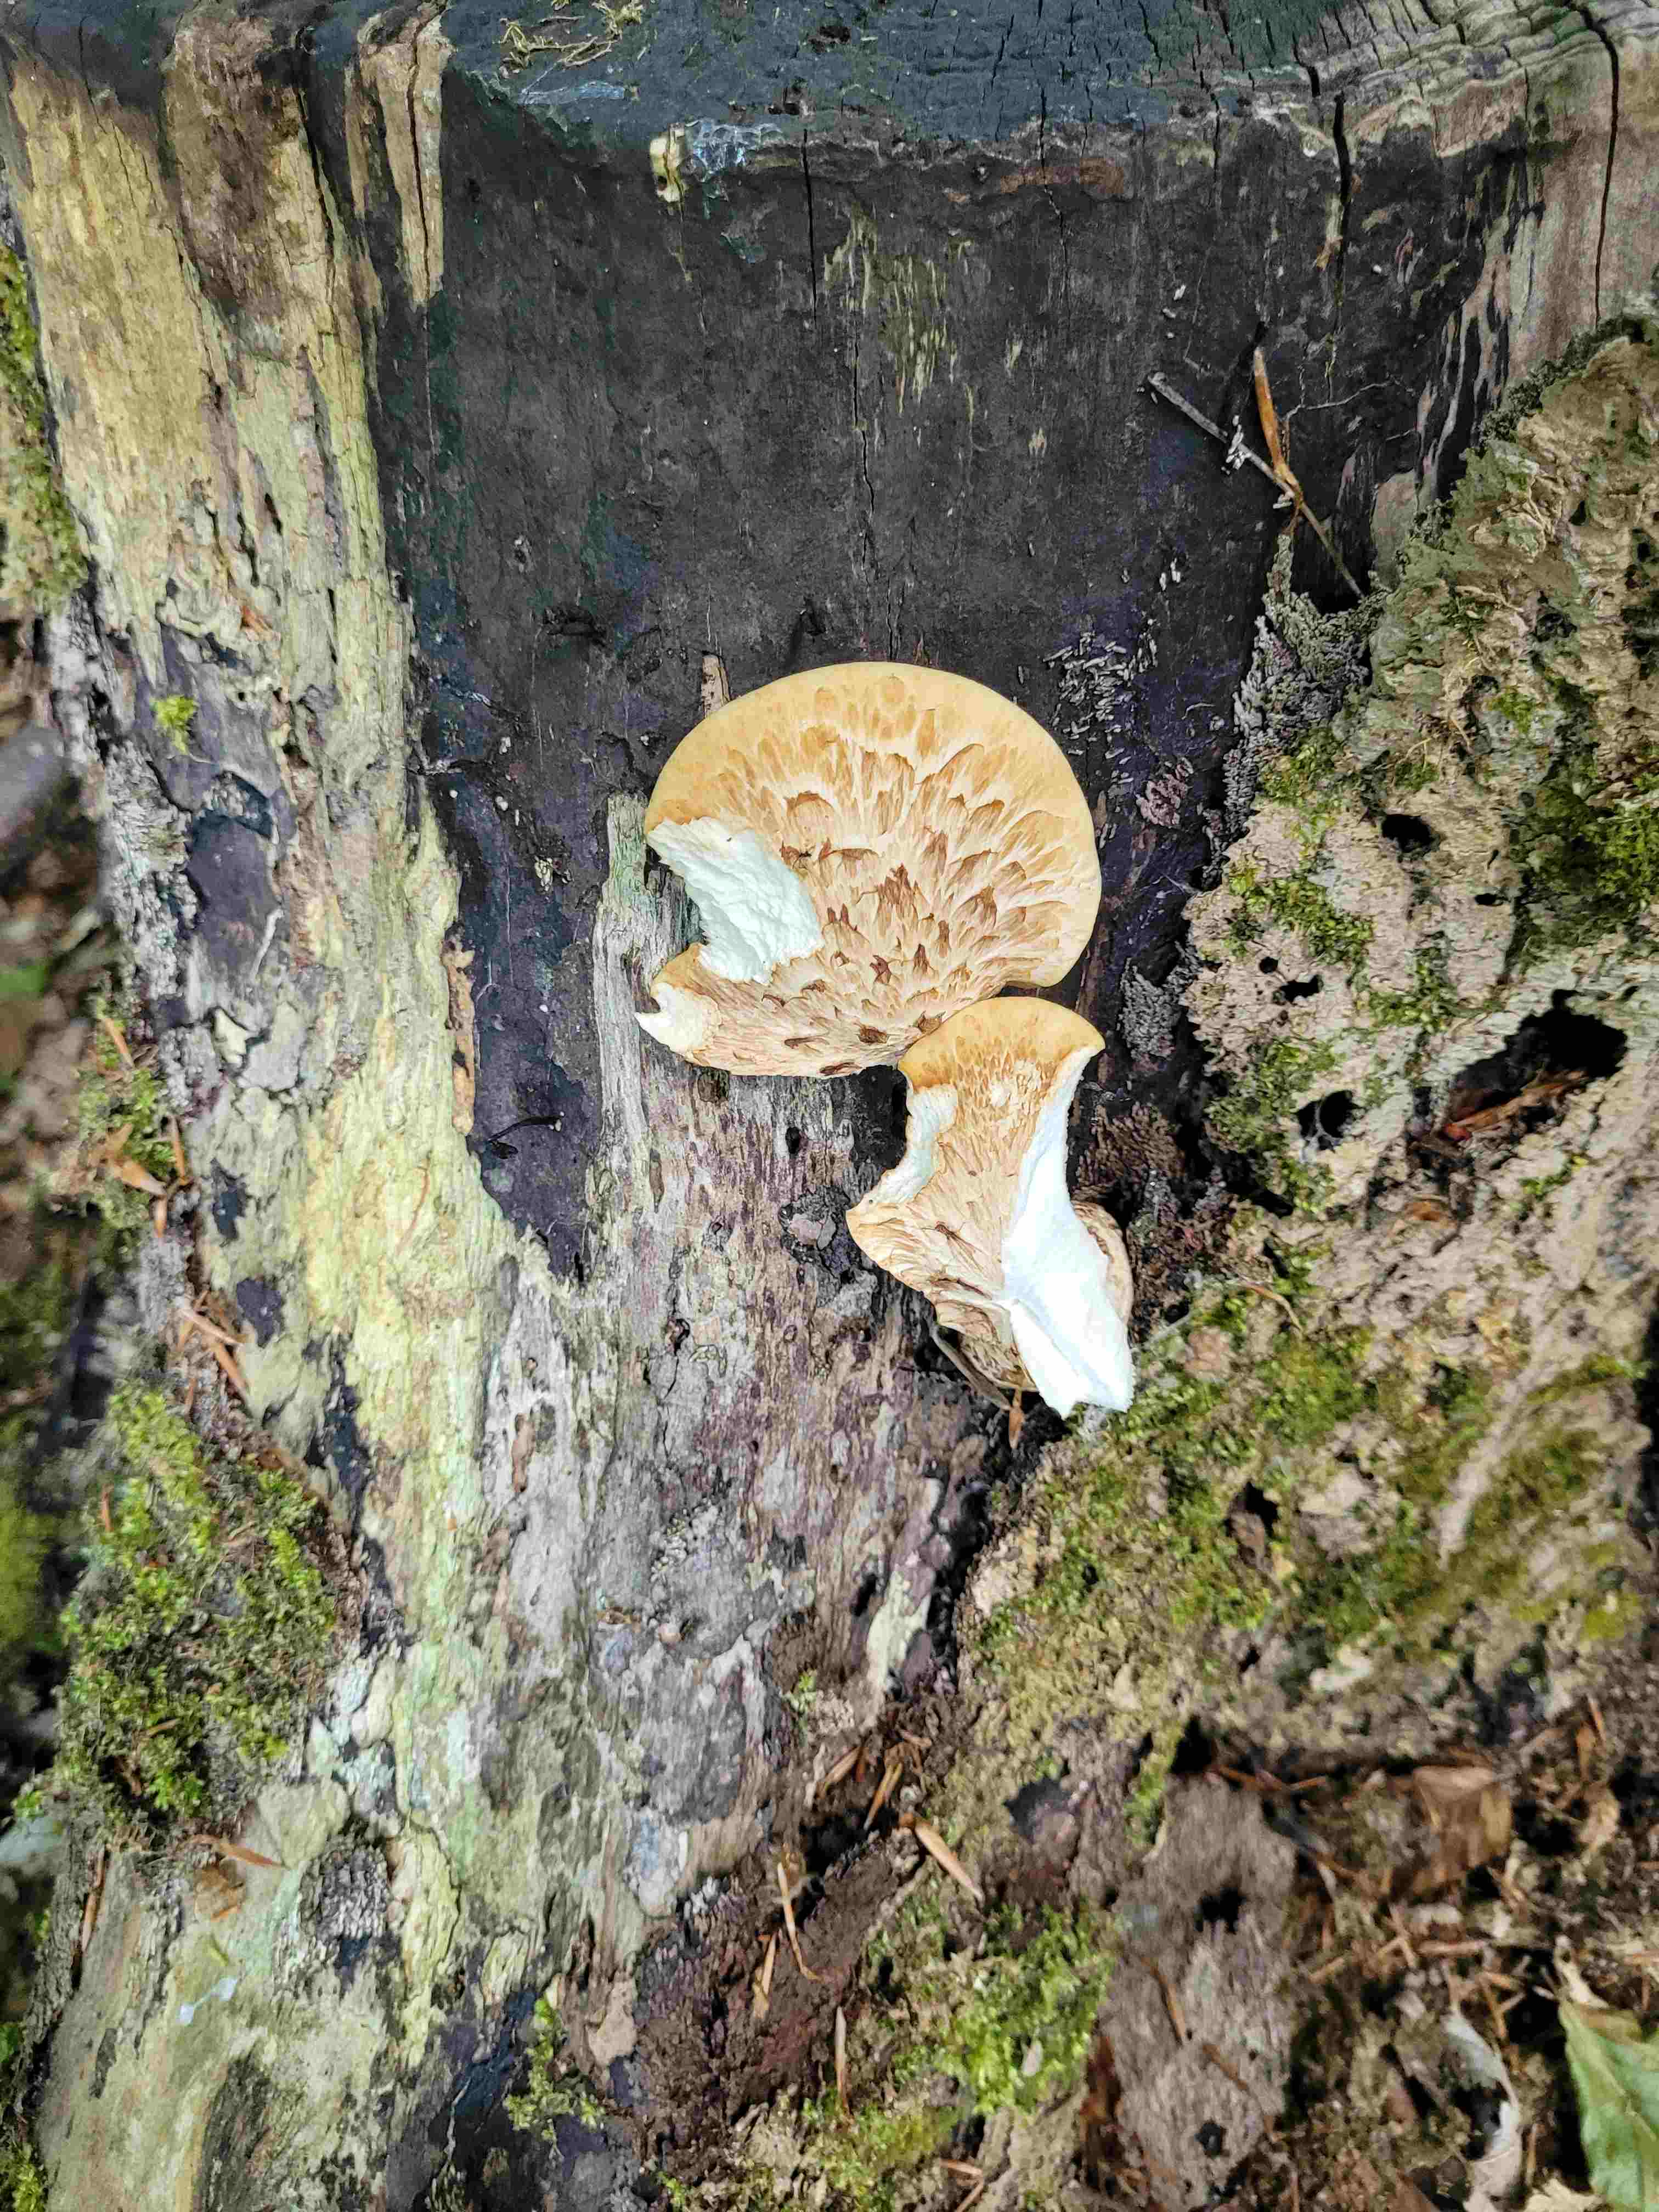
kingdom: Fungi
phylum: Basidiomycota
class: Agaricomycetes
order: Polyporales
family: Polyporaceae
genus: Cerioporus
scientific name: Cerioporus squamosus
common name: skællet stilkporesvamp
